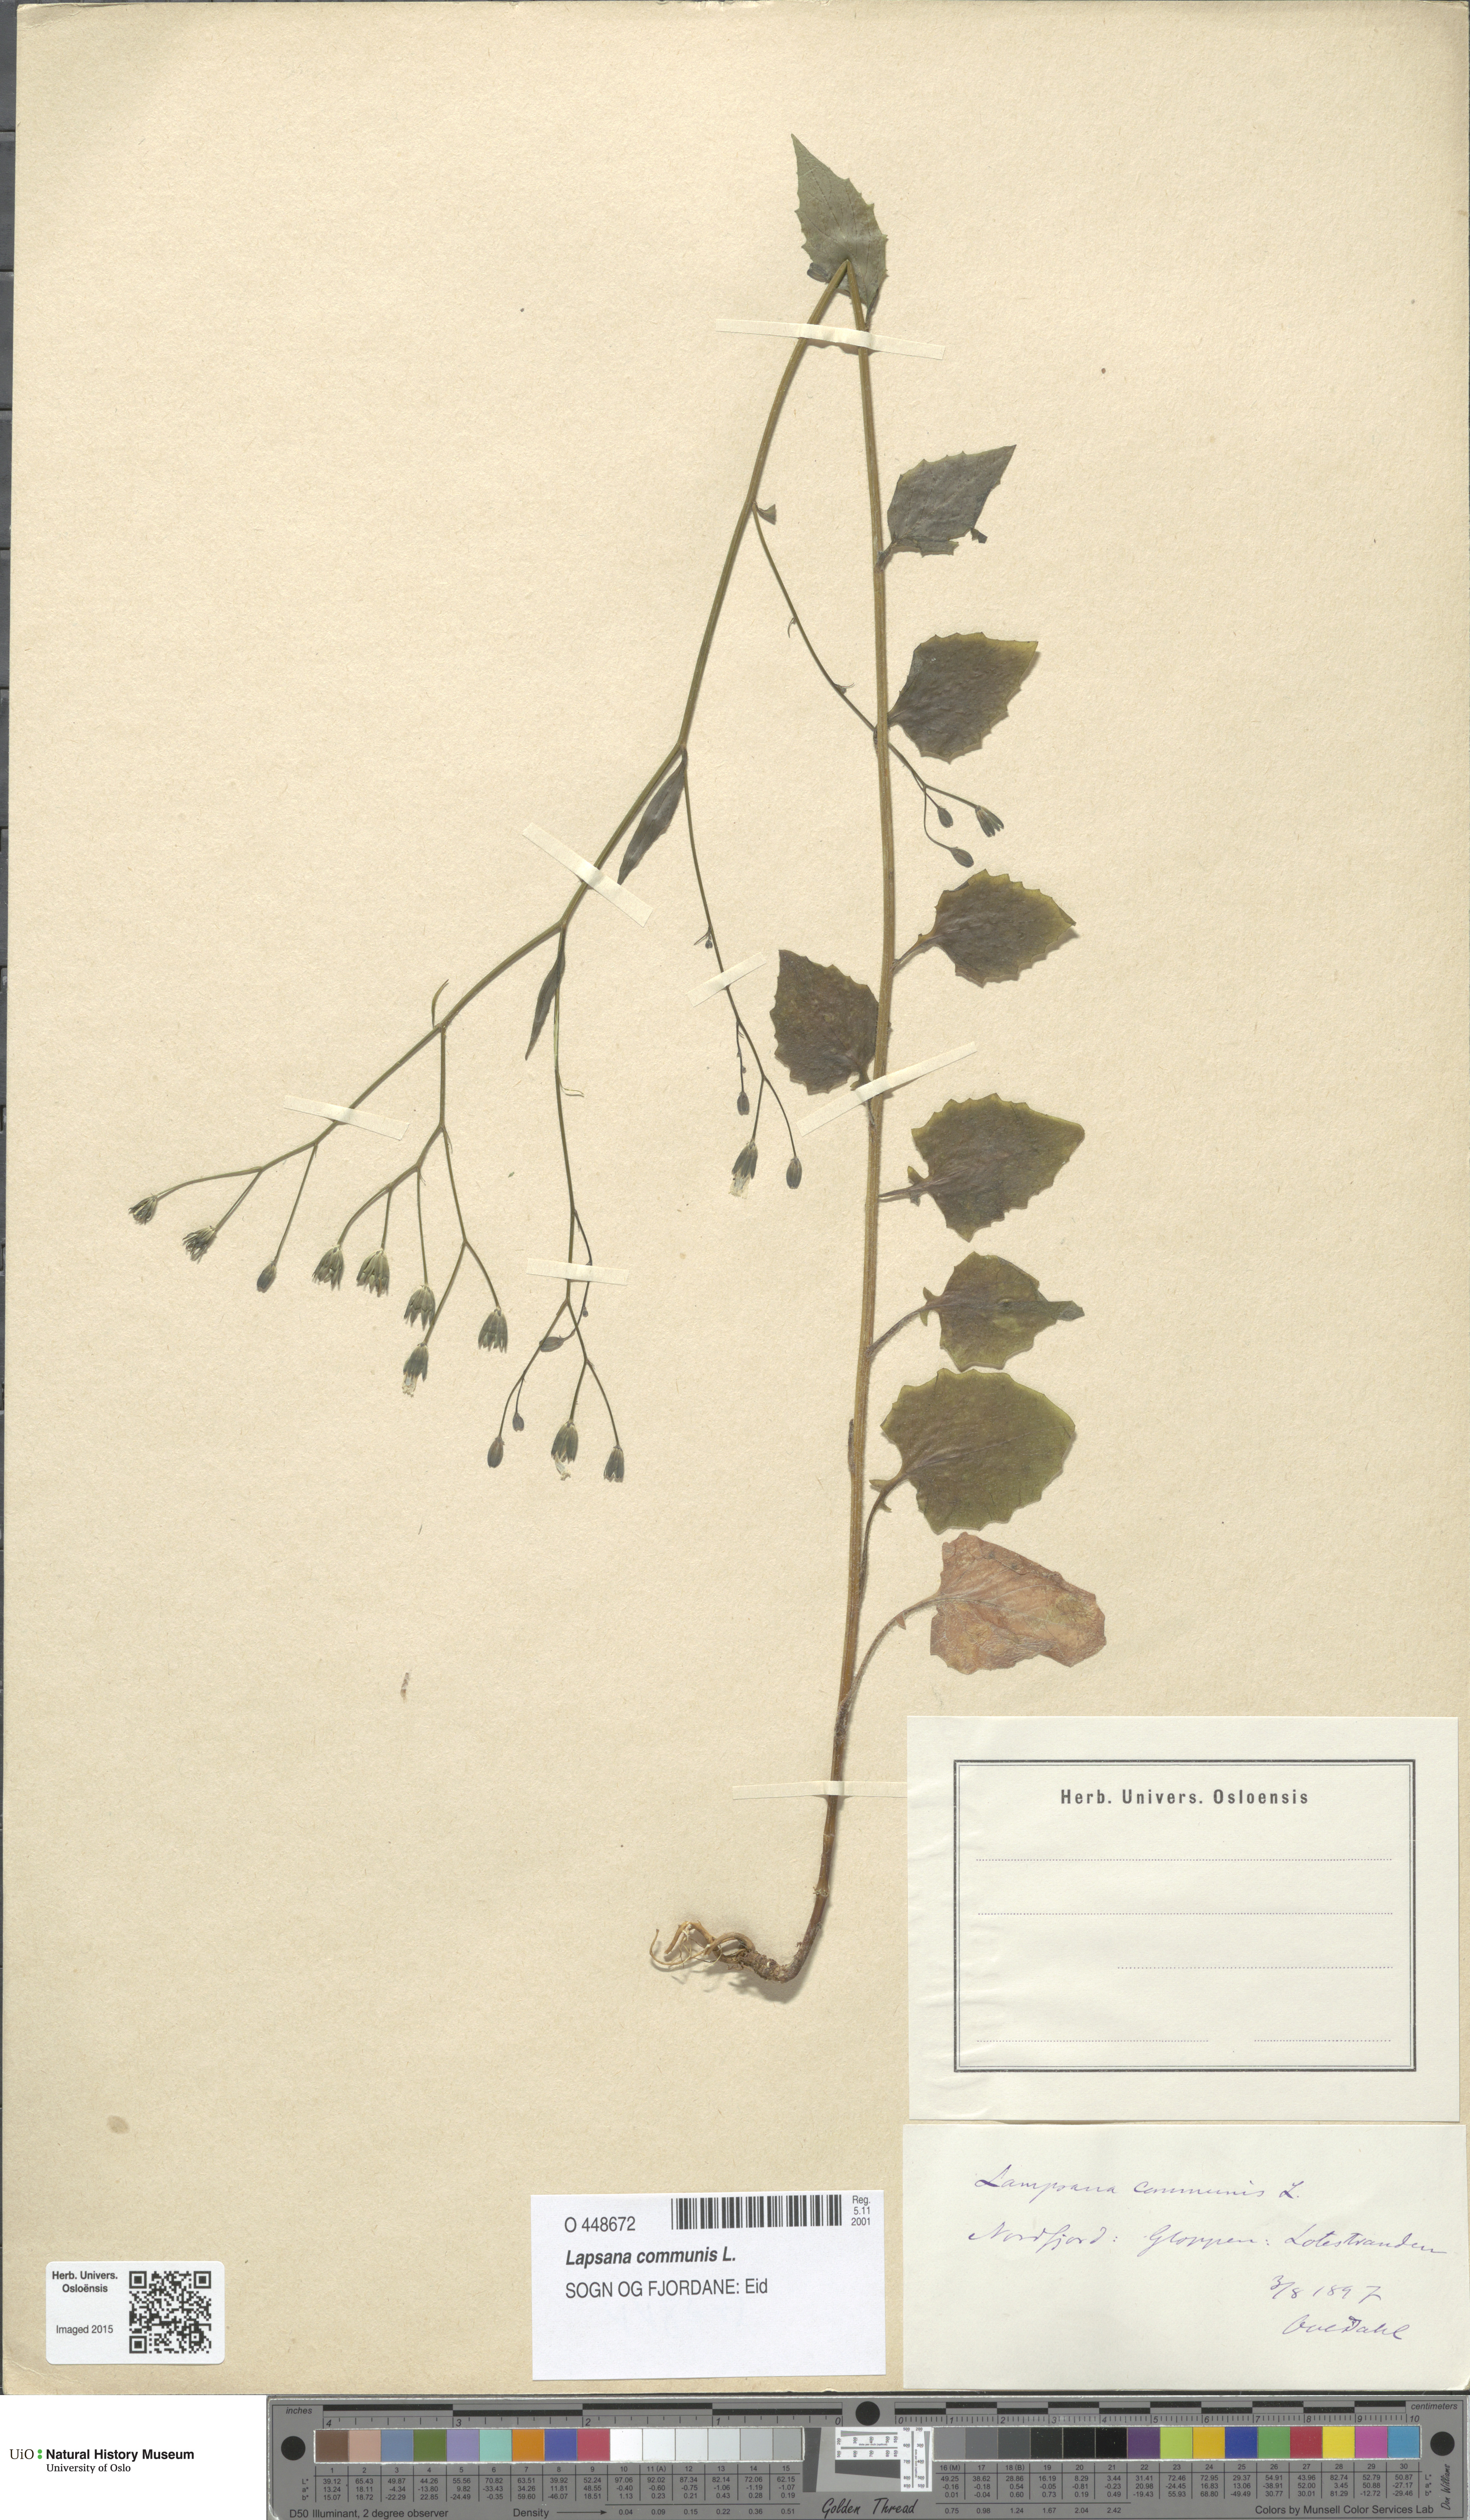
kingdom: Plantae
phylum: Tracheophyta
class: Magnoliopsida
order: Asterales
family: Asteraceae
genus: Lapsana
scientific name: Lapsana communis
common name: Nipplewort
